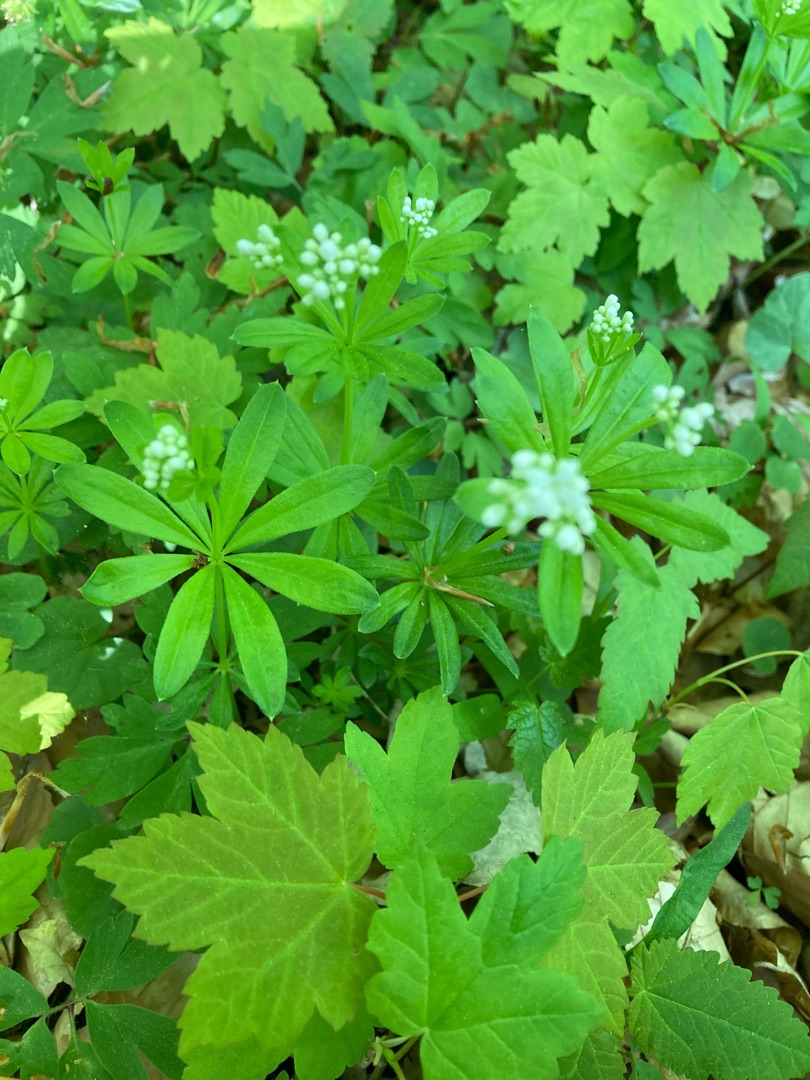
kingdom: Plantae
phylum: Tracheophyta
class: Magnoliopsida
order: Gentianales
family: Rubiaceae
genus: Galium
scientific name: Galium odoratum
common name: Skovmærke
